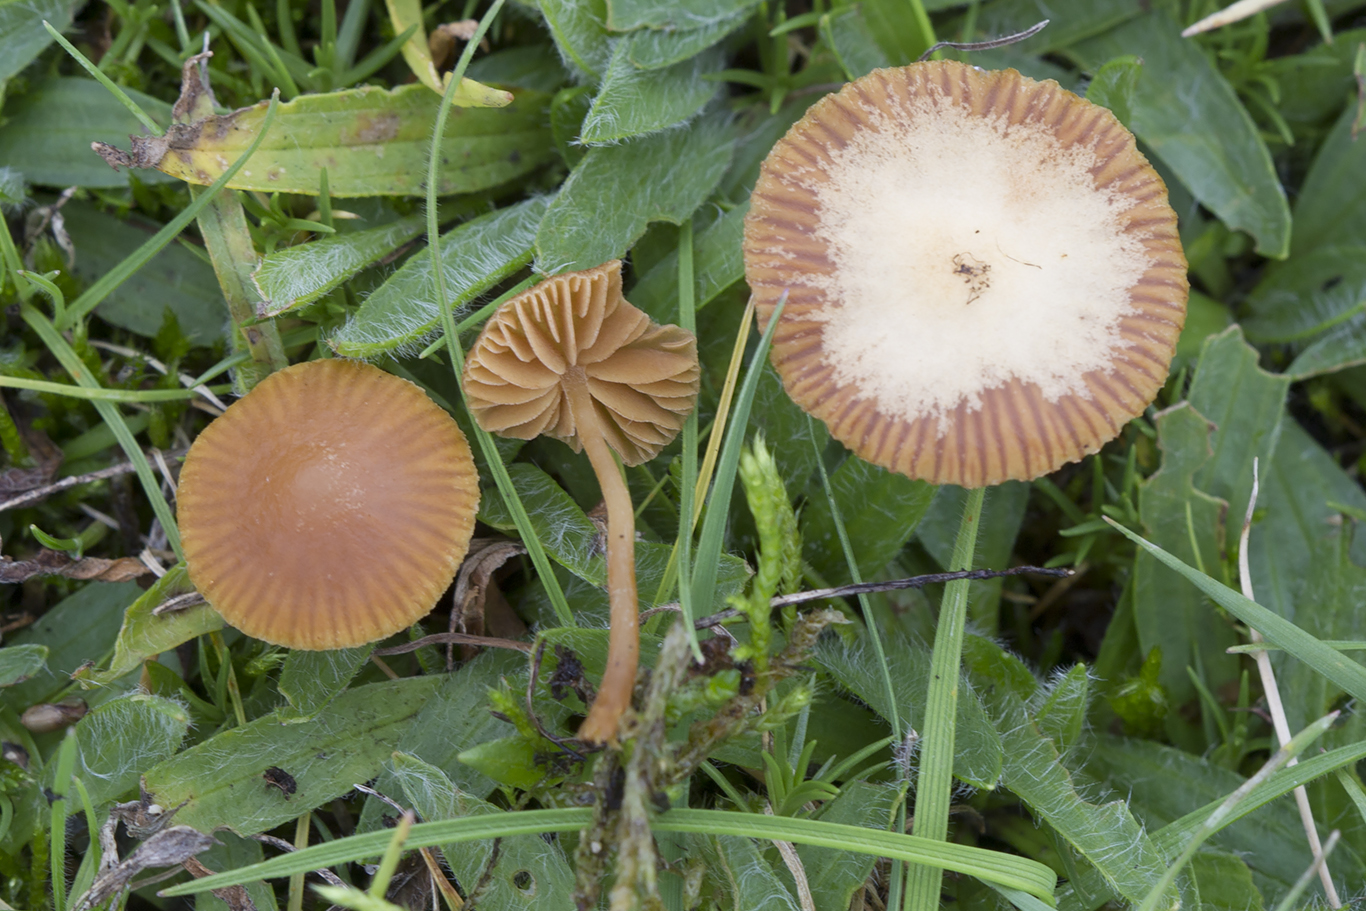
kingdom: Fungi
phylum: Basidiomycota
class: Agaricomycetes
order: Agaricales
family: Hymenogastraceae
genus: Galerina
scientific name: Galerina vittiformis
